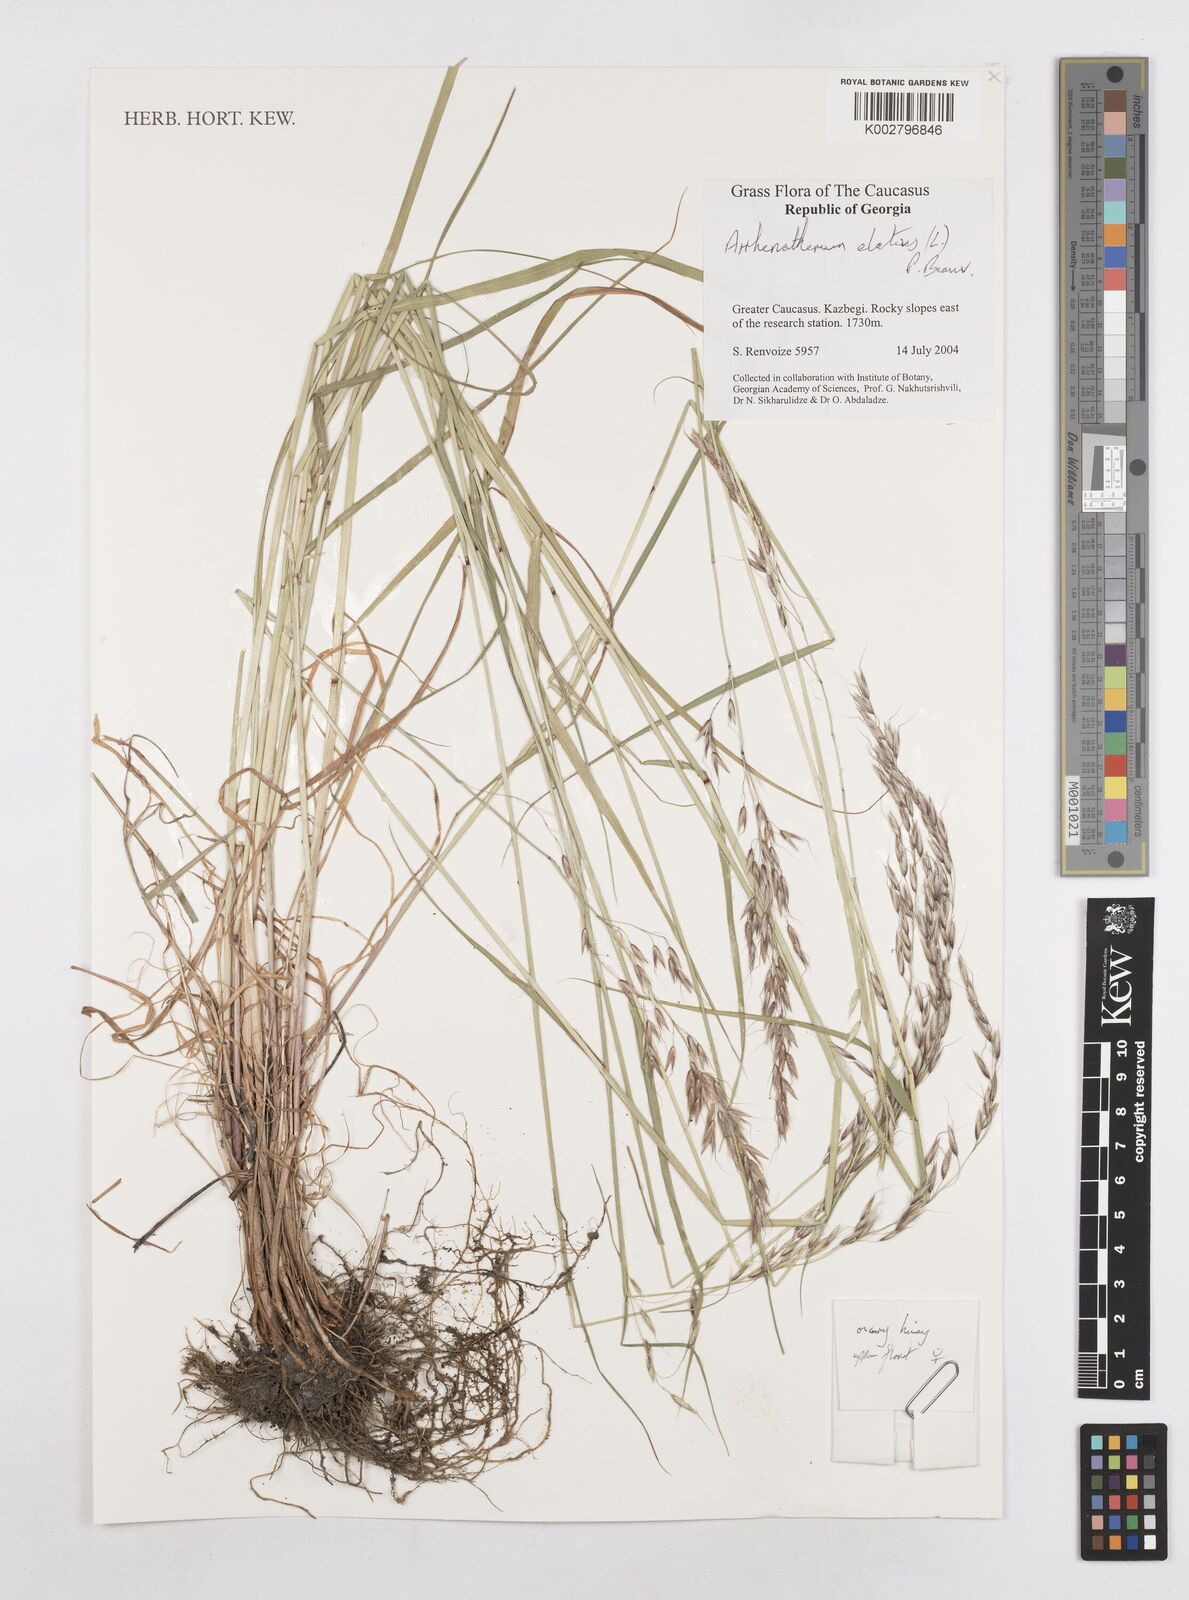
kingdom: Plantae
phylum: Tracheophyta
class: Liliopsida
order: Poales
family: Poaceae
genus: Arrhenatherum
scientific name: Arrhenatherum elatius
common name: Tall oatgrass
